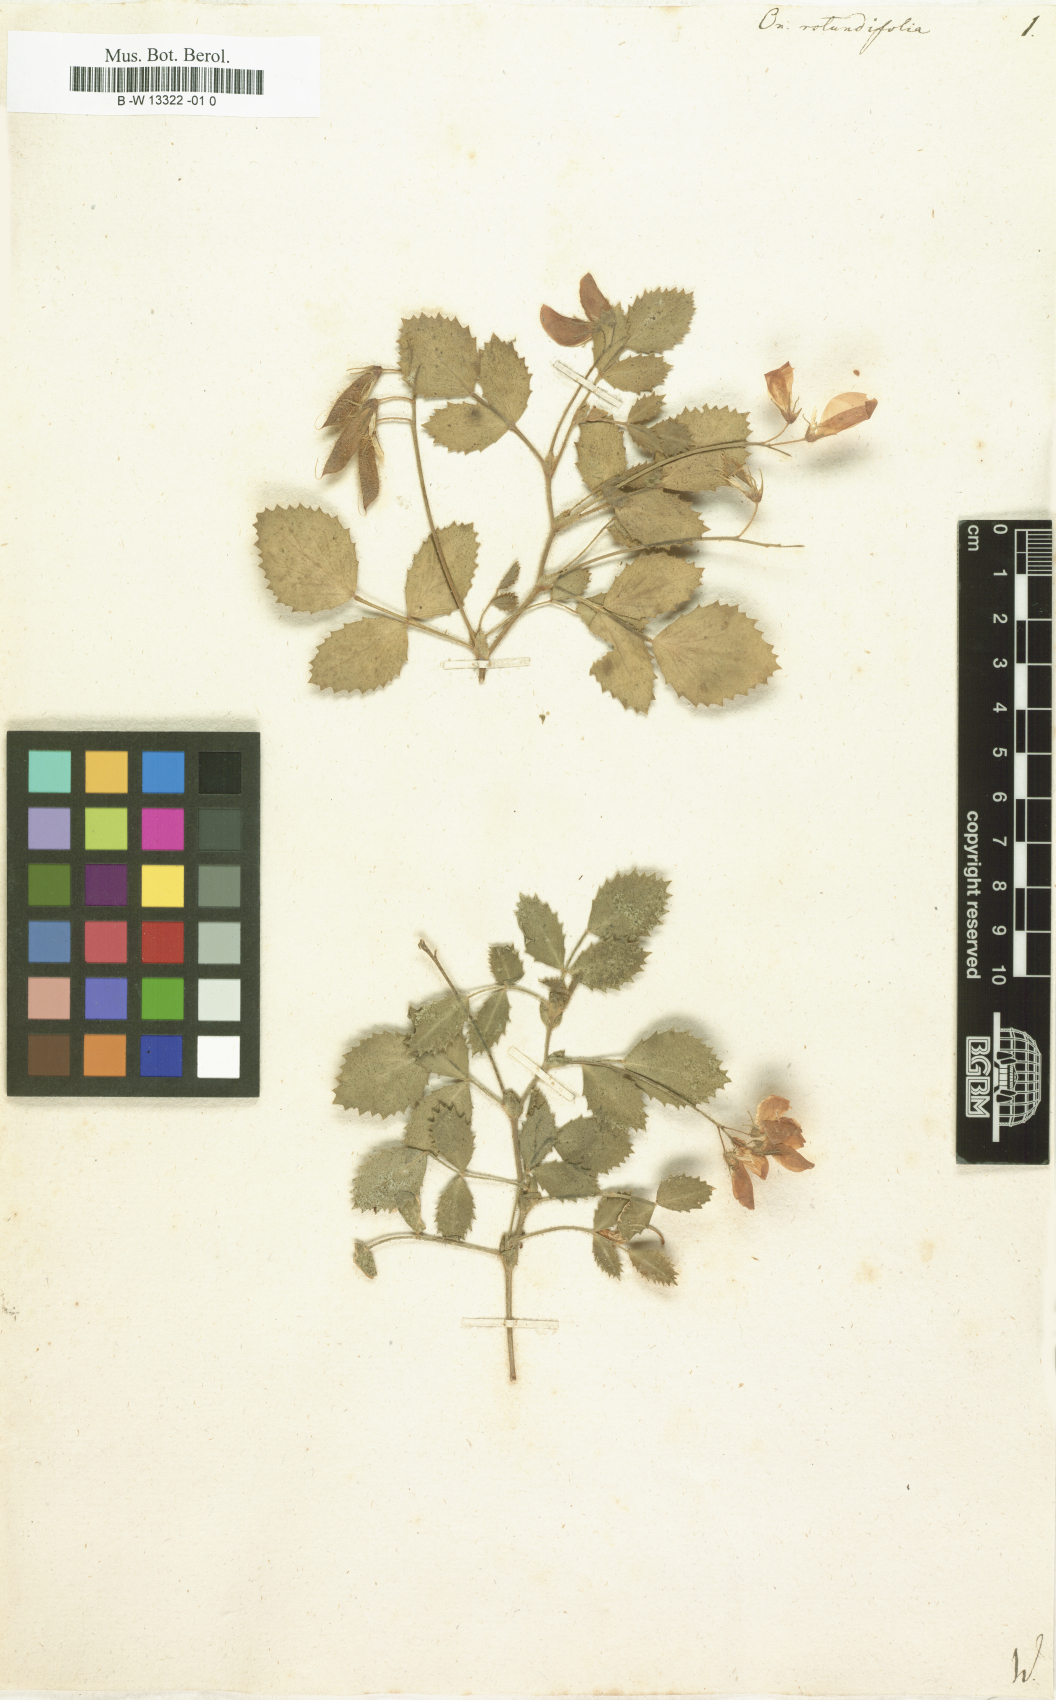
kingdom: Plantae
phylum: Tracheophyta
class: Magnoliopsida
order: Fabales
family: Fabaceae
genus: Ononis
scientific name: Ononis rotundifolia
